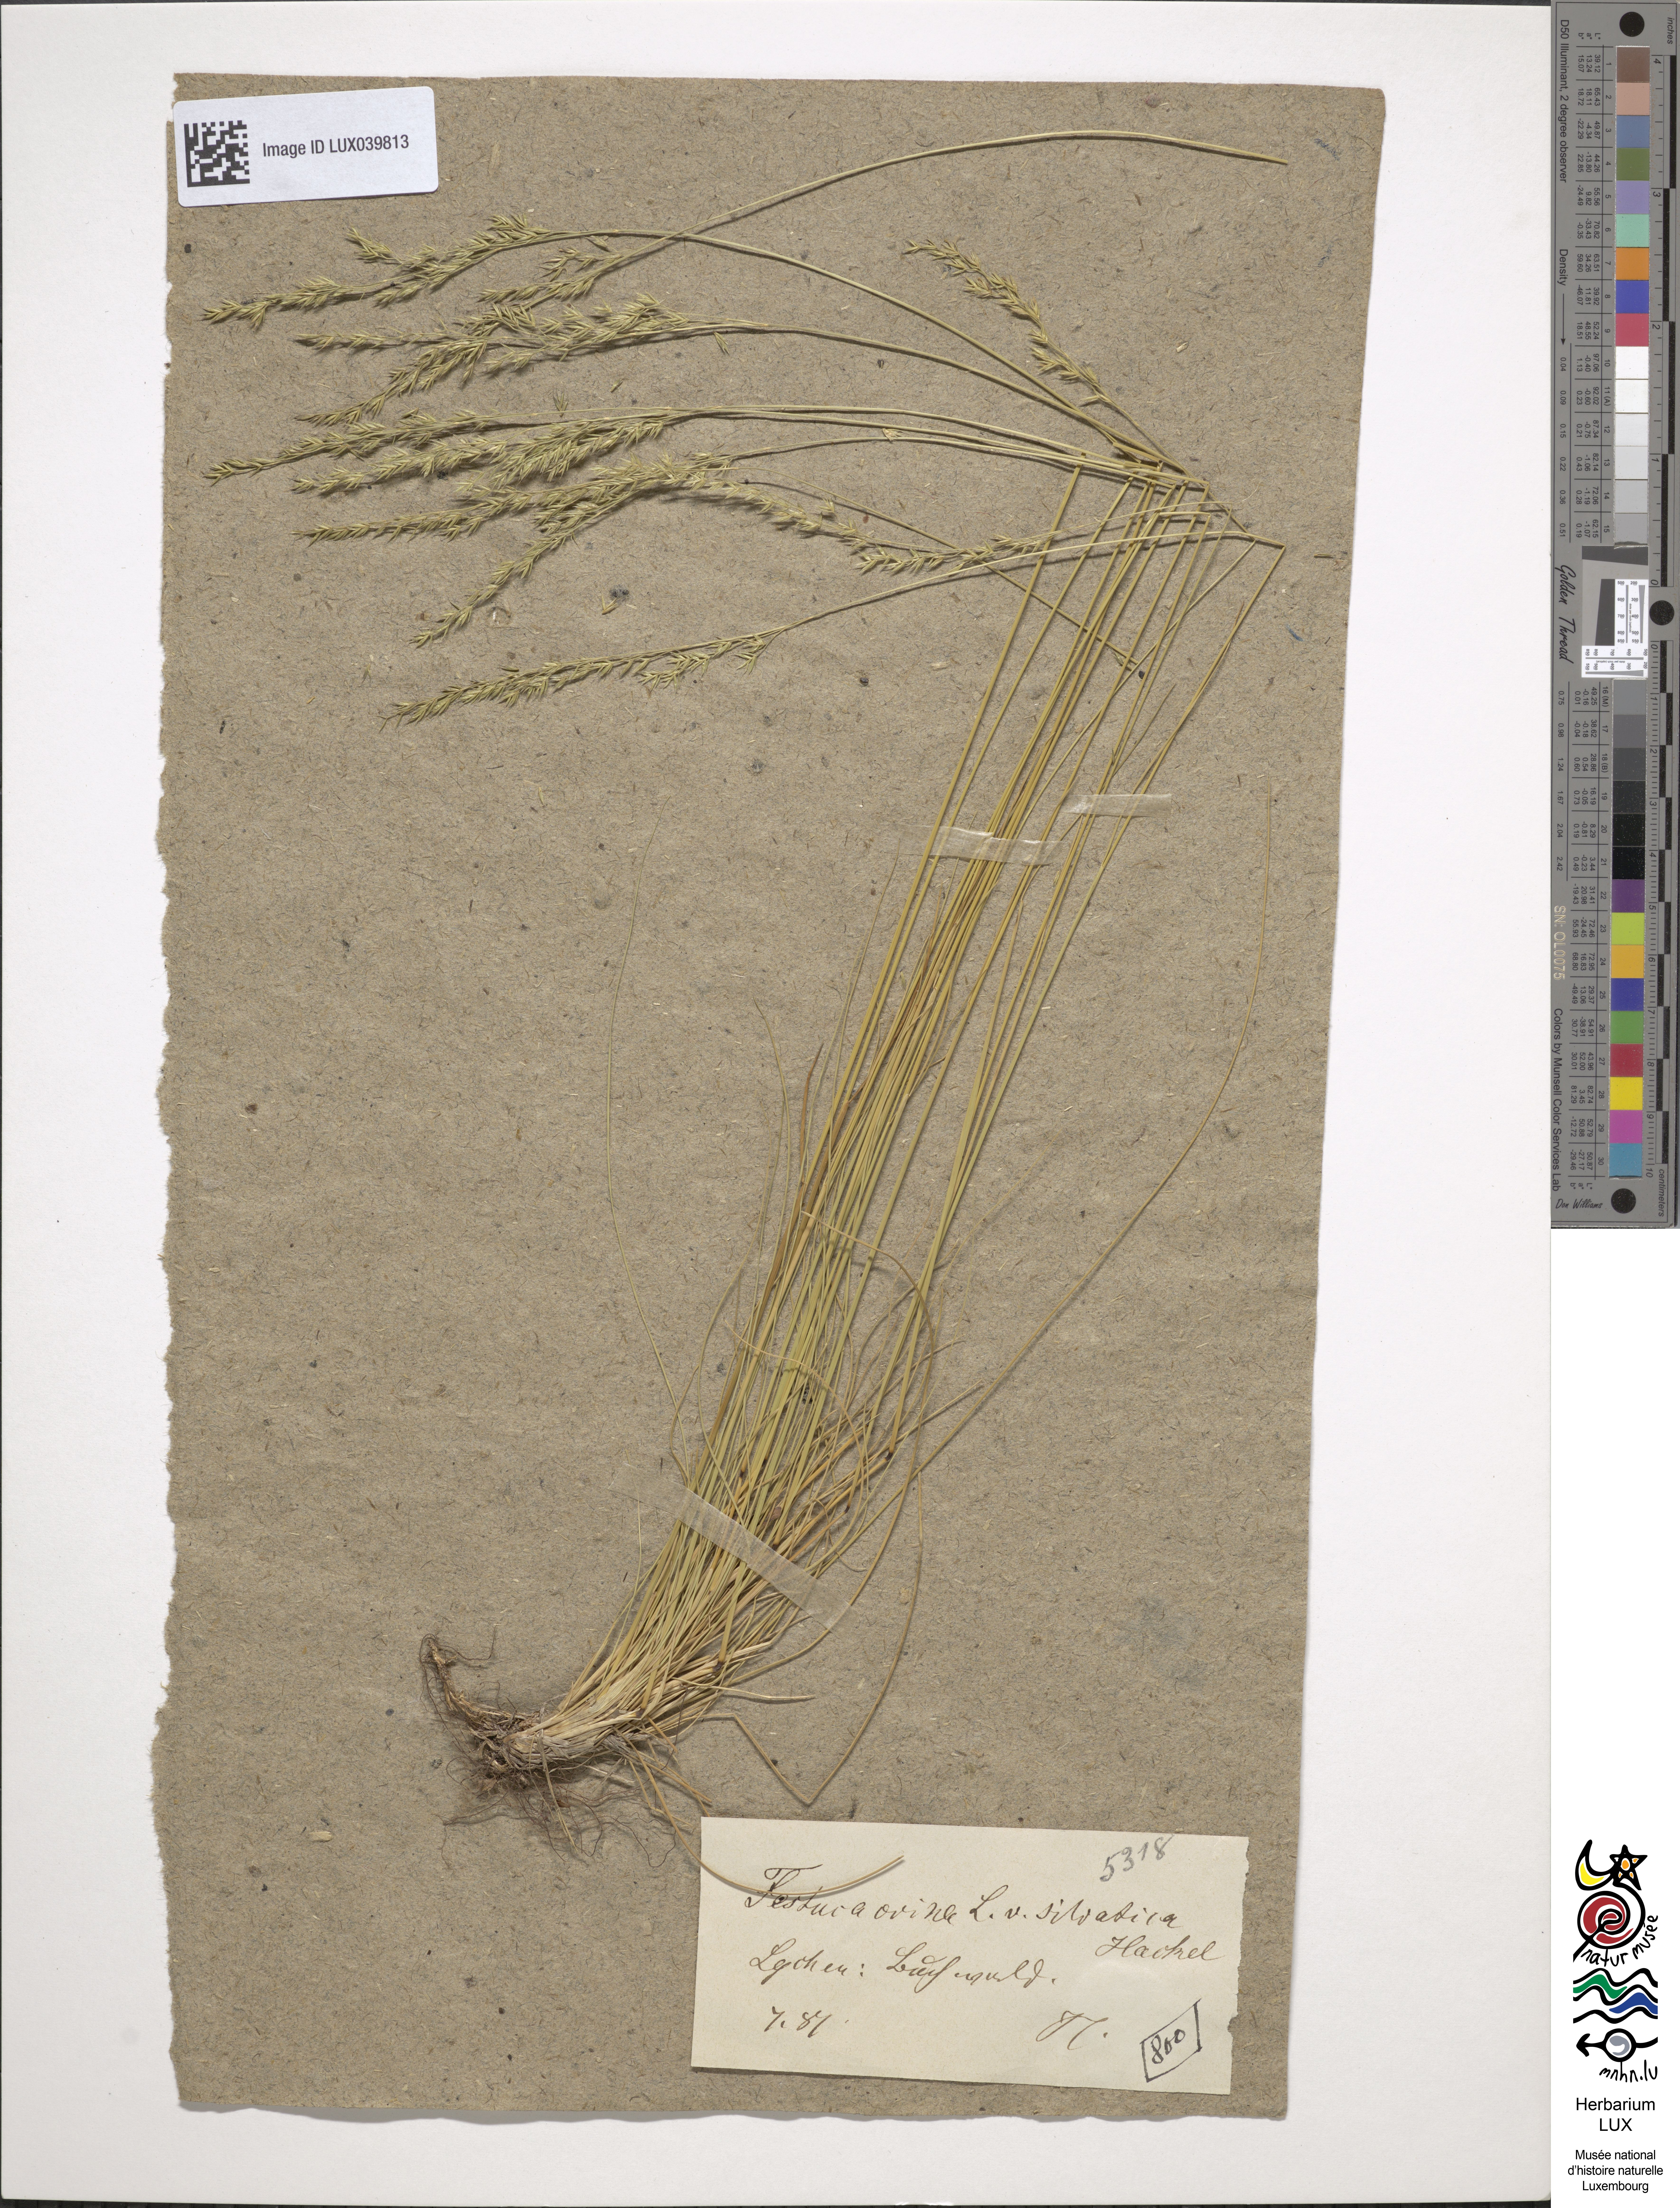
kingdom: Plantae
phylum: Tracheophyta
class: Liliopsida
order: Poales
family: Poaceae
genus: Festuca
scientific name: Festuca ovina
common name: Sheep fescue
